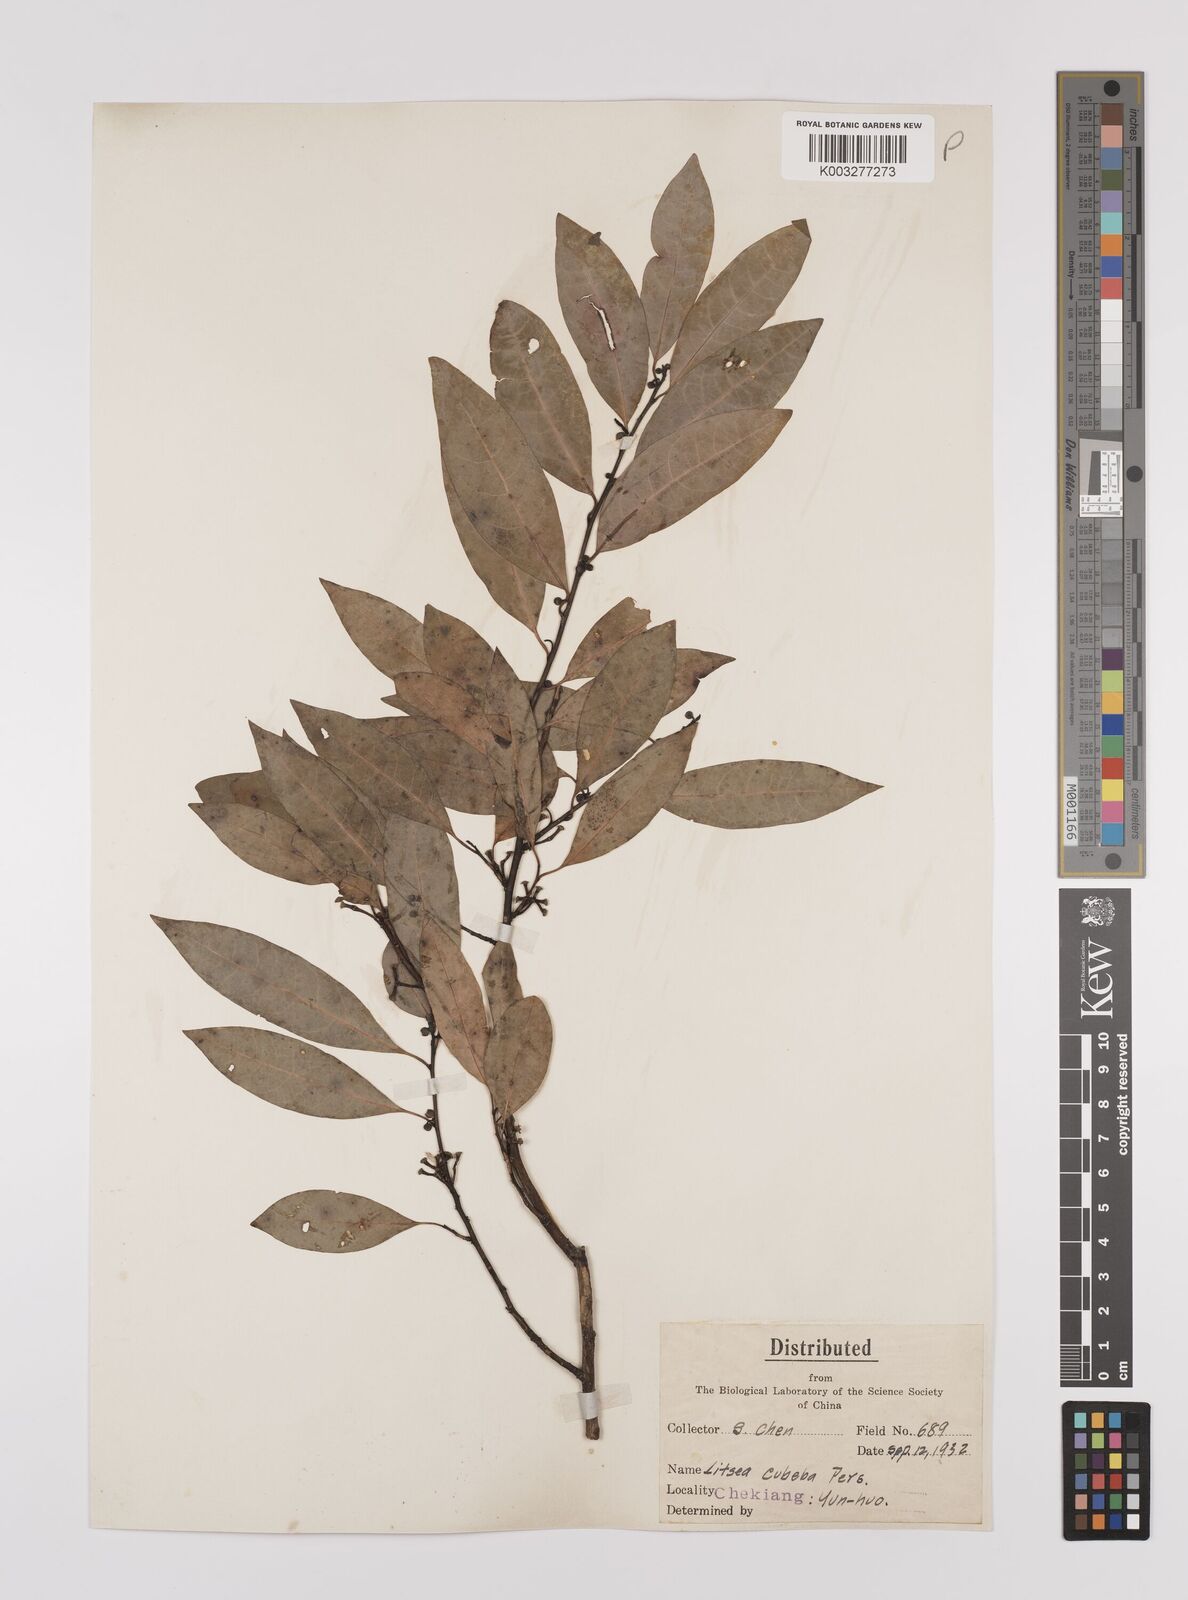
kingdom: Plantae
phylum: Tracheophyta
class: Magnoliopsida
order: Laurales
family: Lauraceae
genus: Litsea
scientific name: Litsea cubeba
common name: Mountain-pepper
